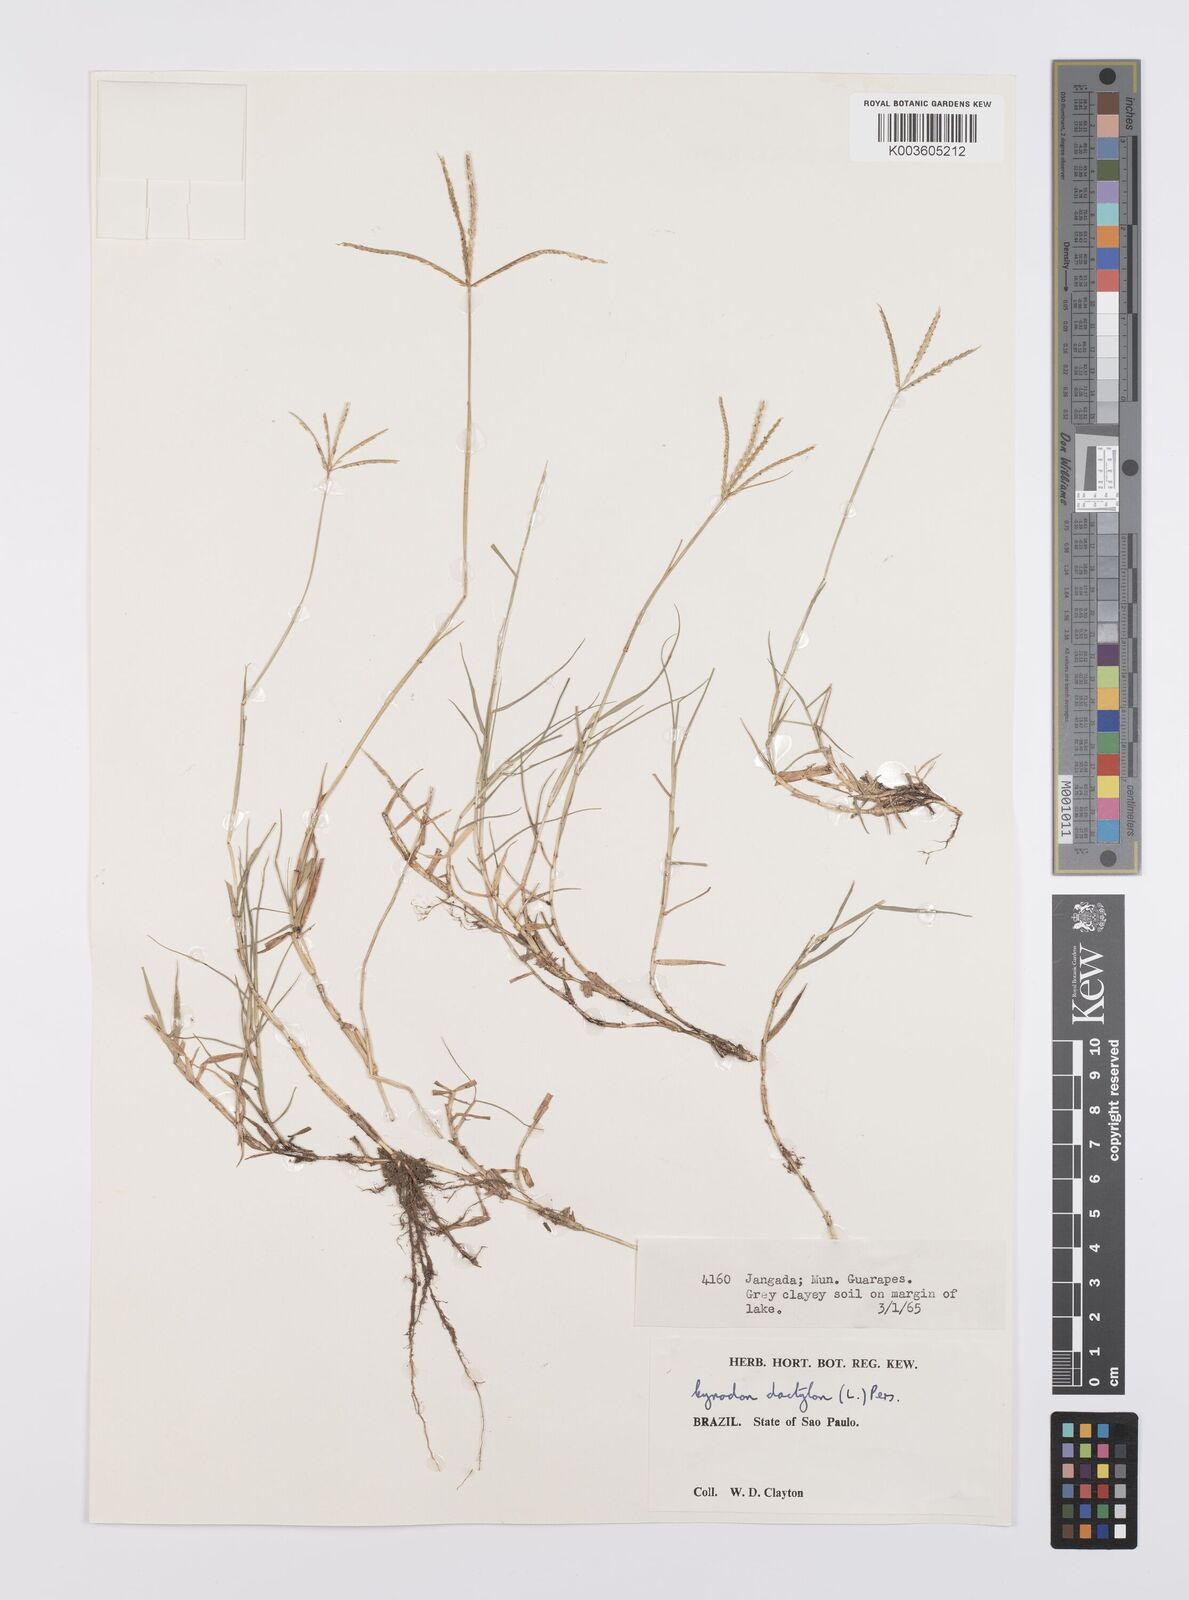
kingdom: Plantae
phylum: Tracheophyta
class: Liliopsida
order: Poales
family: Poaceae
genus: Cynodon
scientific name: Cynodon dactylon
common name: Bermuda grass
